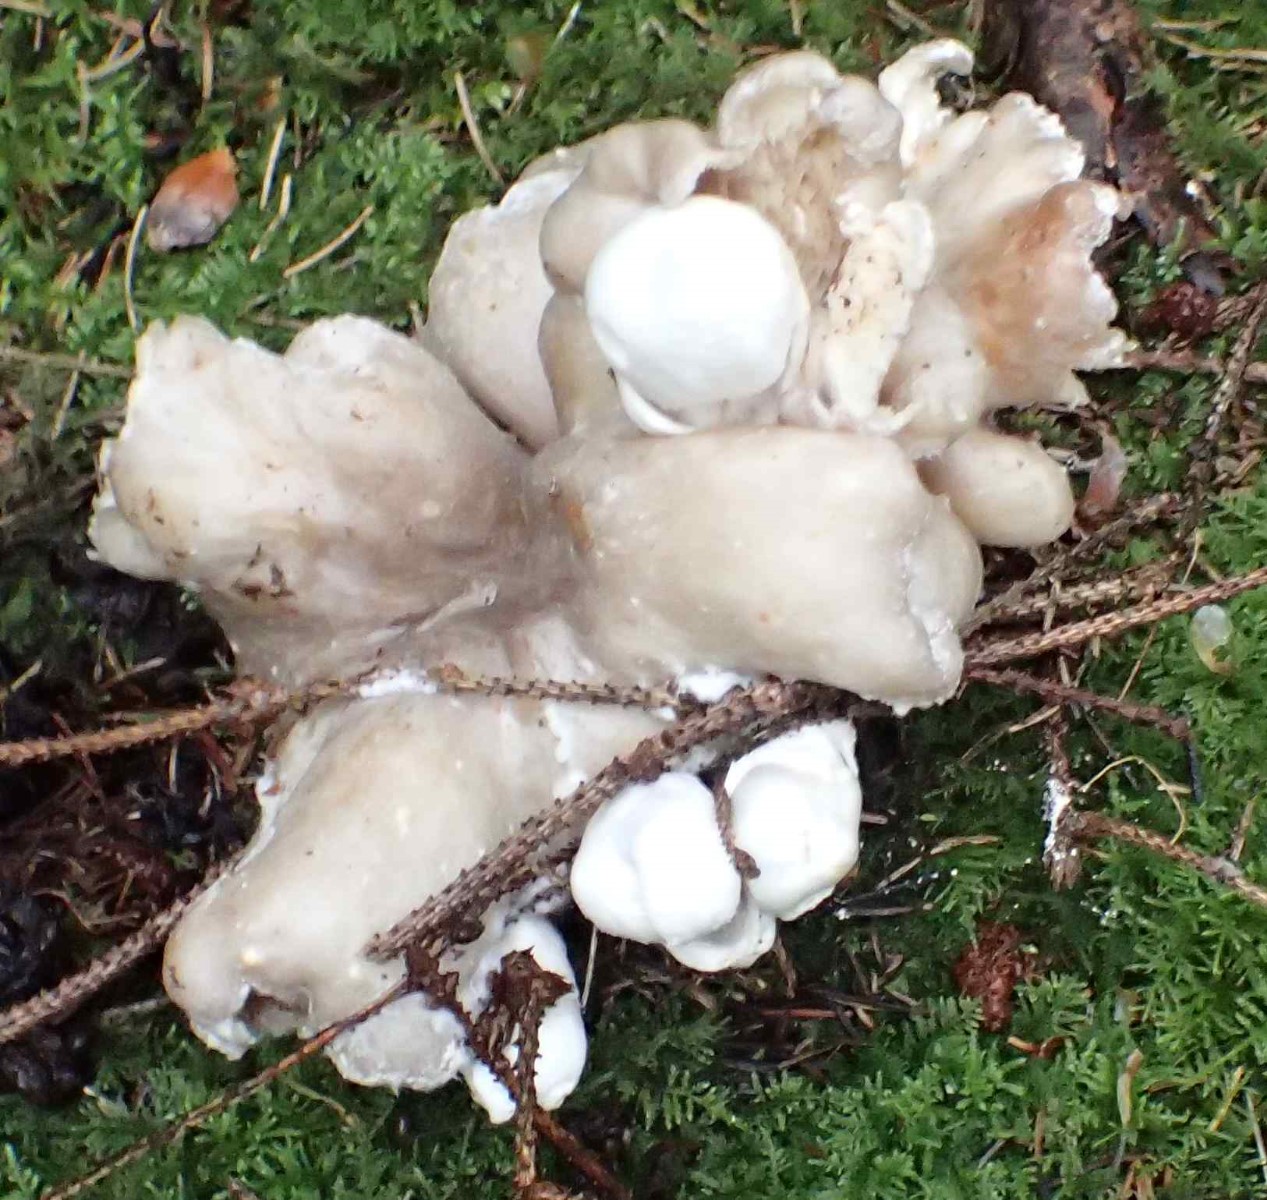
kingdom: Fungi
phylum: Basidiomycota
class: Agaricomycetes
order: Agaricales
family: Pluteaceae
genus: Volvariella
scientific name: Volvariella surrecta
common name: snyltende posesvamp
